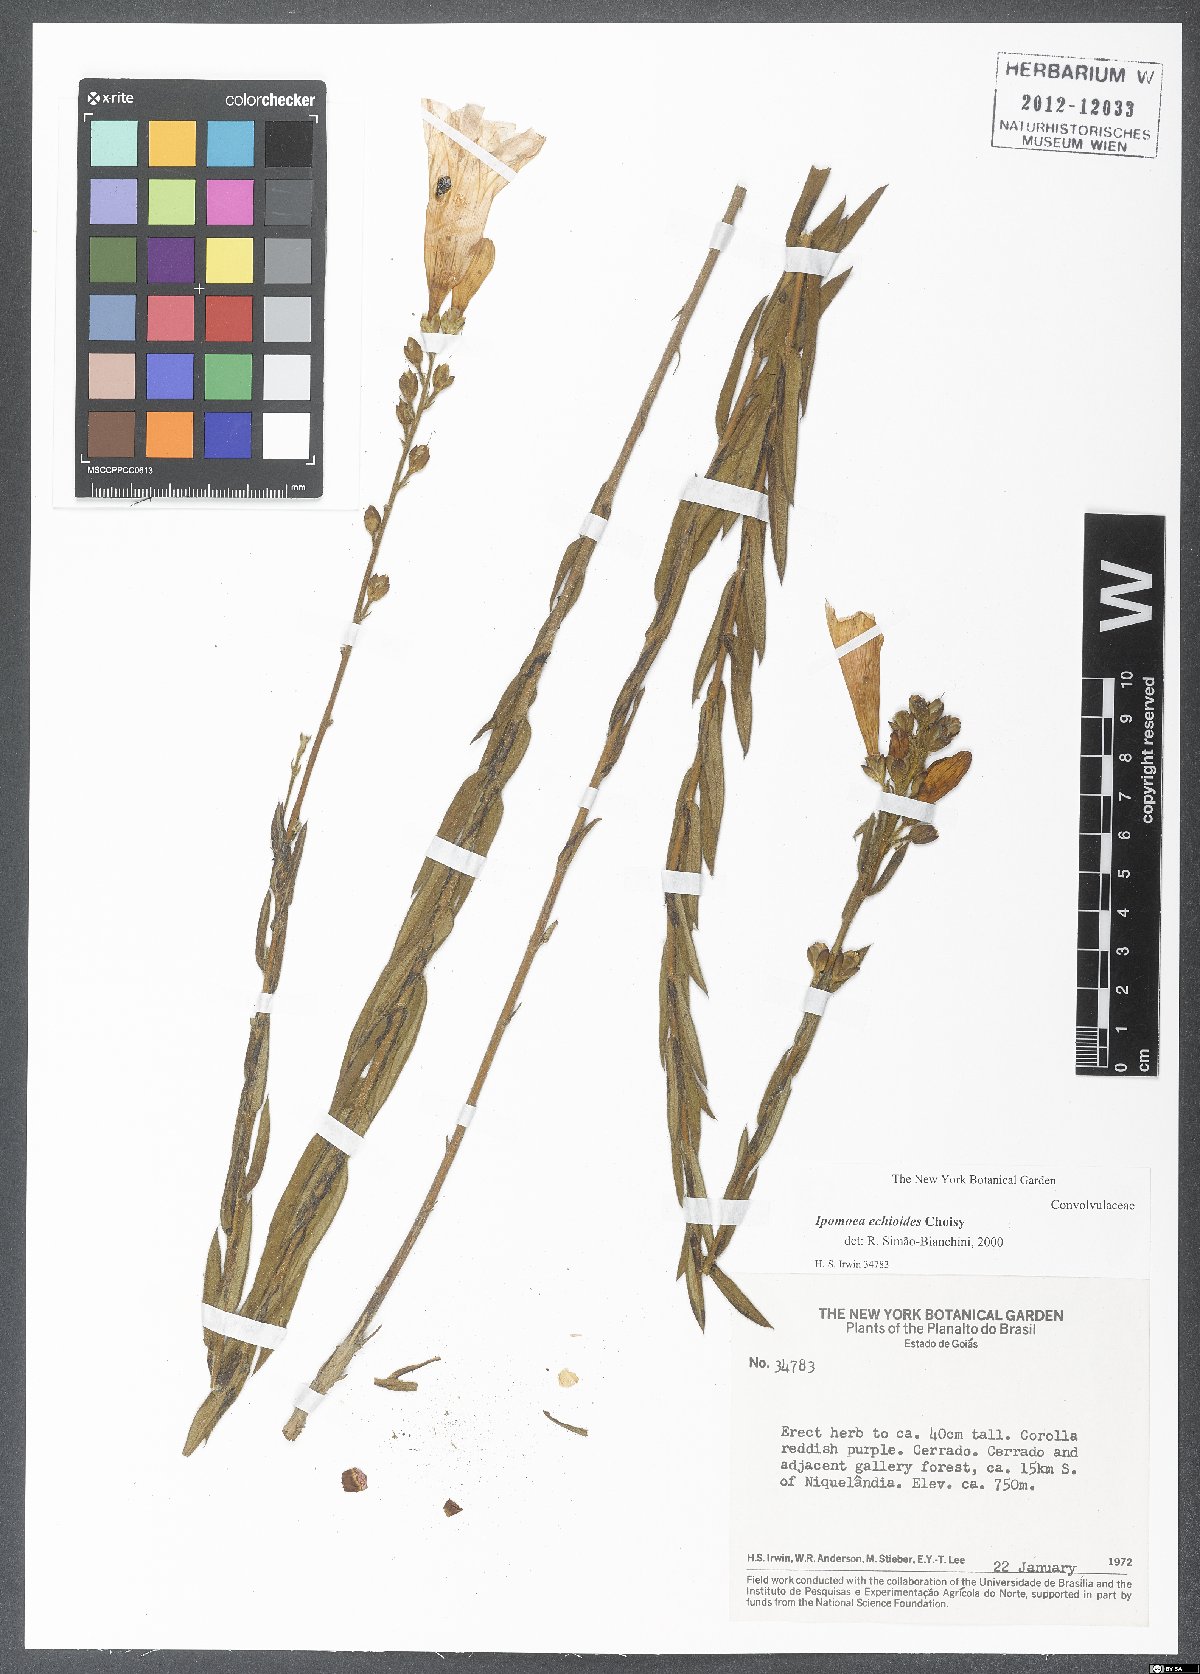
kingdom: Plantae
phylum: Tracheophyta
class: Magnoliopsida
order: Solanales
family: Convolvulaceae
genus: Ipomoea
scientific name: Ipomoea paulistana
